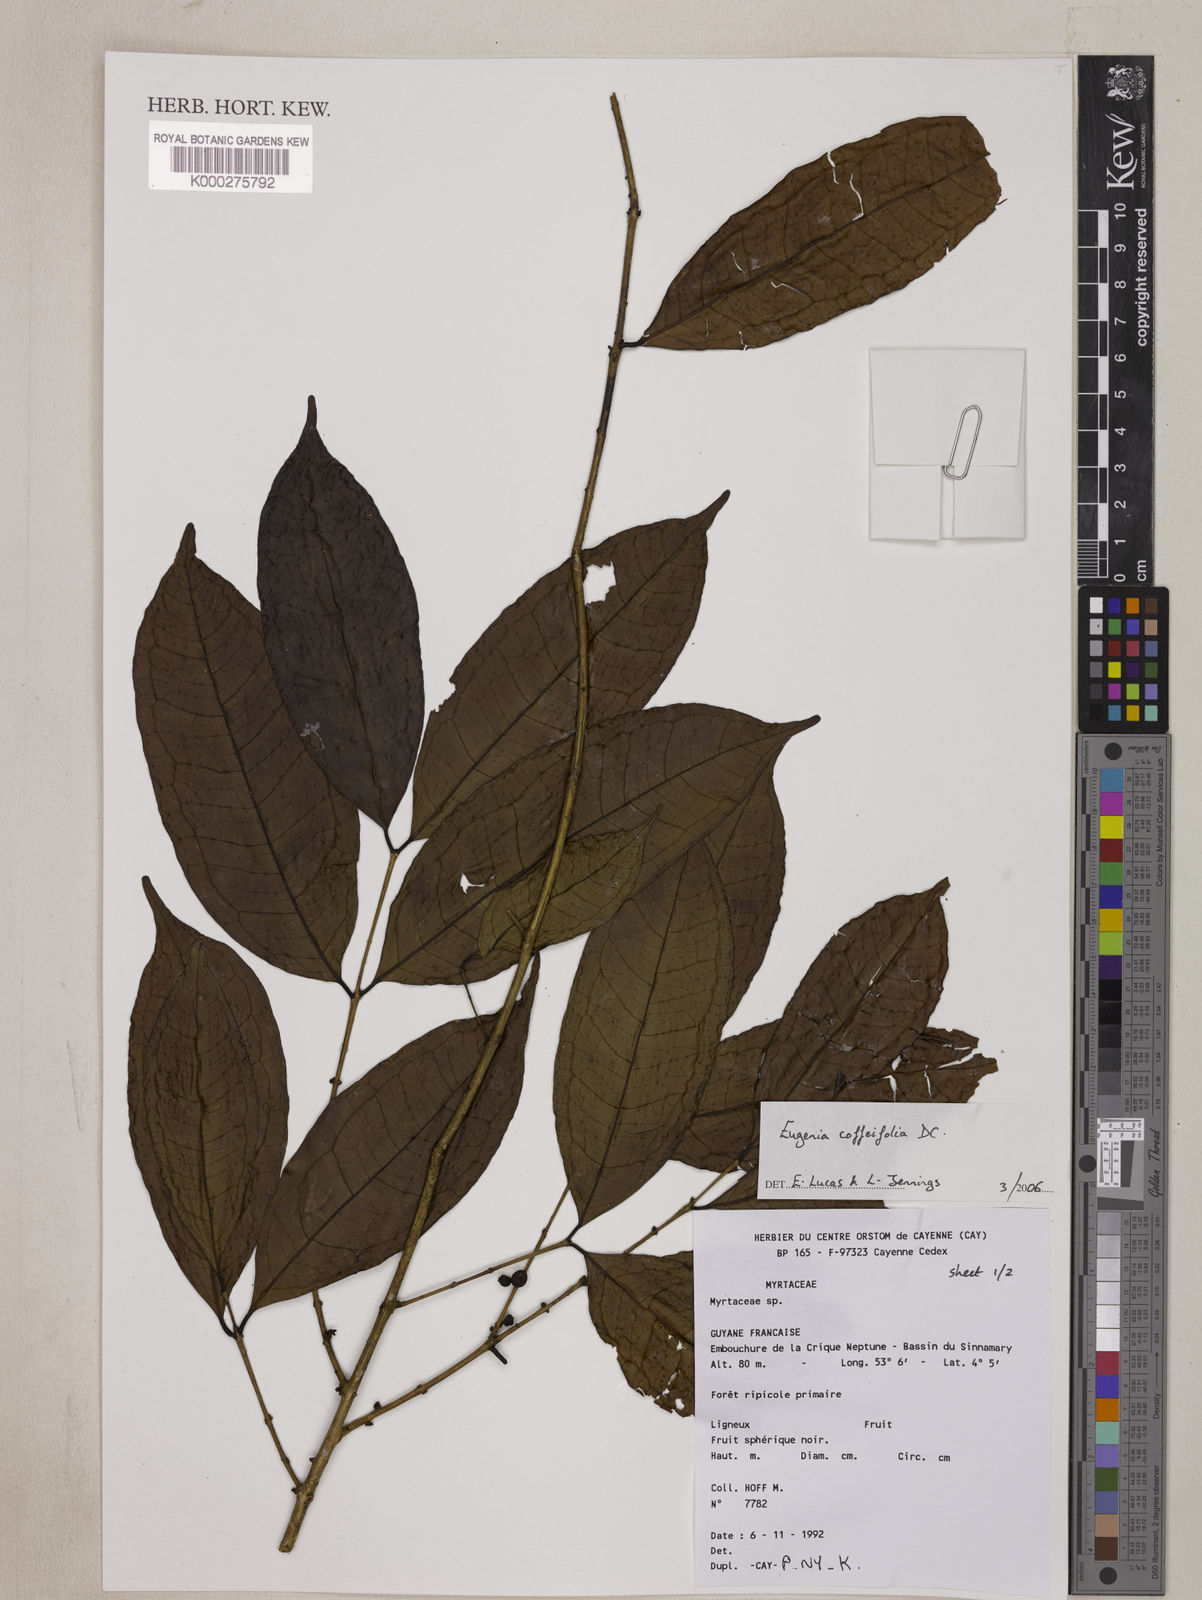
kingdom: Plantae
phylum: Tracheophyta
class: Magnoliopsida
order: Myrtales
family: Myrtaceae
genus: Eugenia
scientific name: Eugenia coffeifolia
